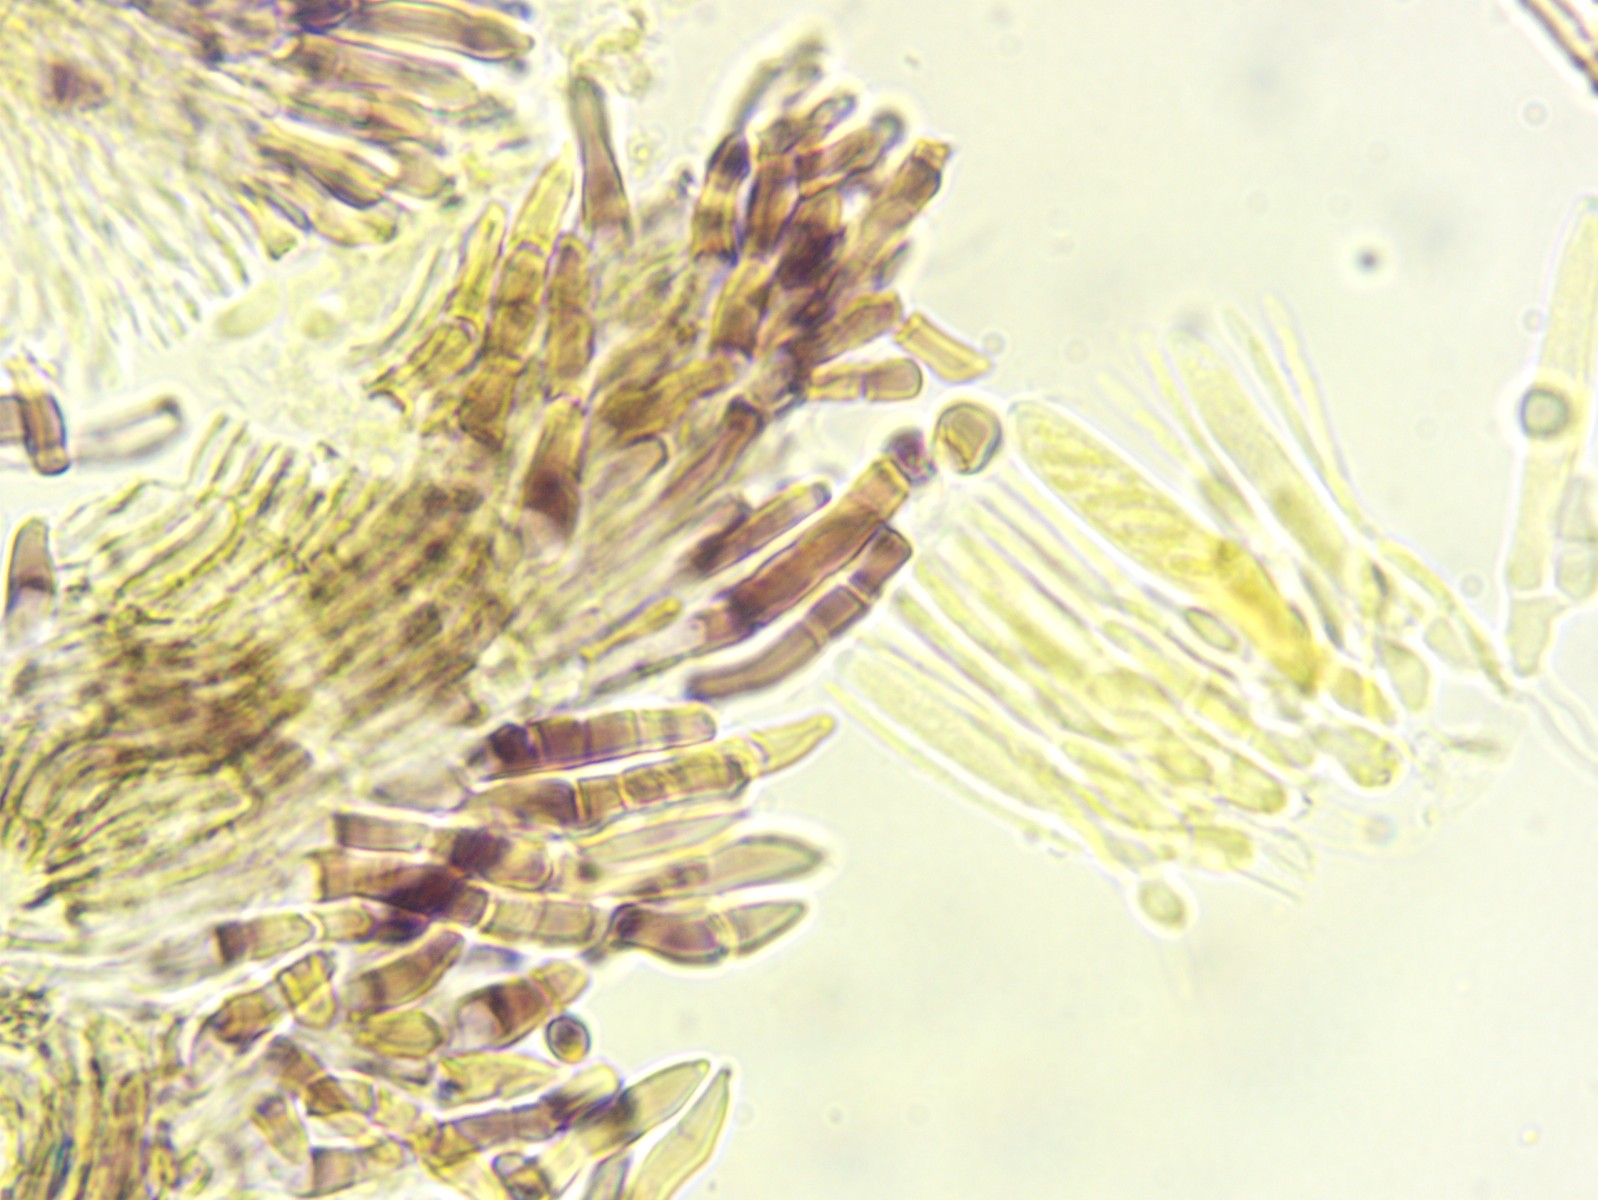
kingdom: Fungi
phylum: Ascomycota
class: Leotiomycetes
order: Helotiales
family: Hyaloscyphaceae
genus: Hyalopeziza
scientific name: Hyalopeziza millepunctata
